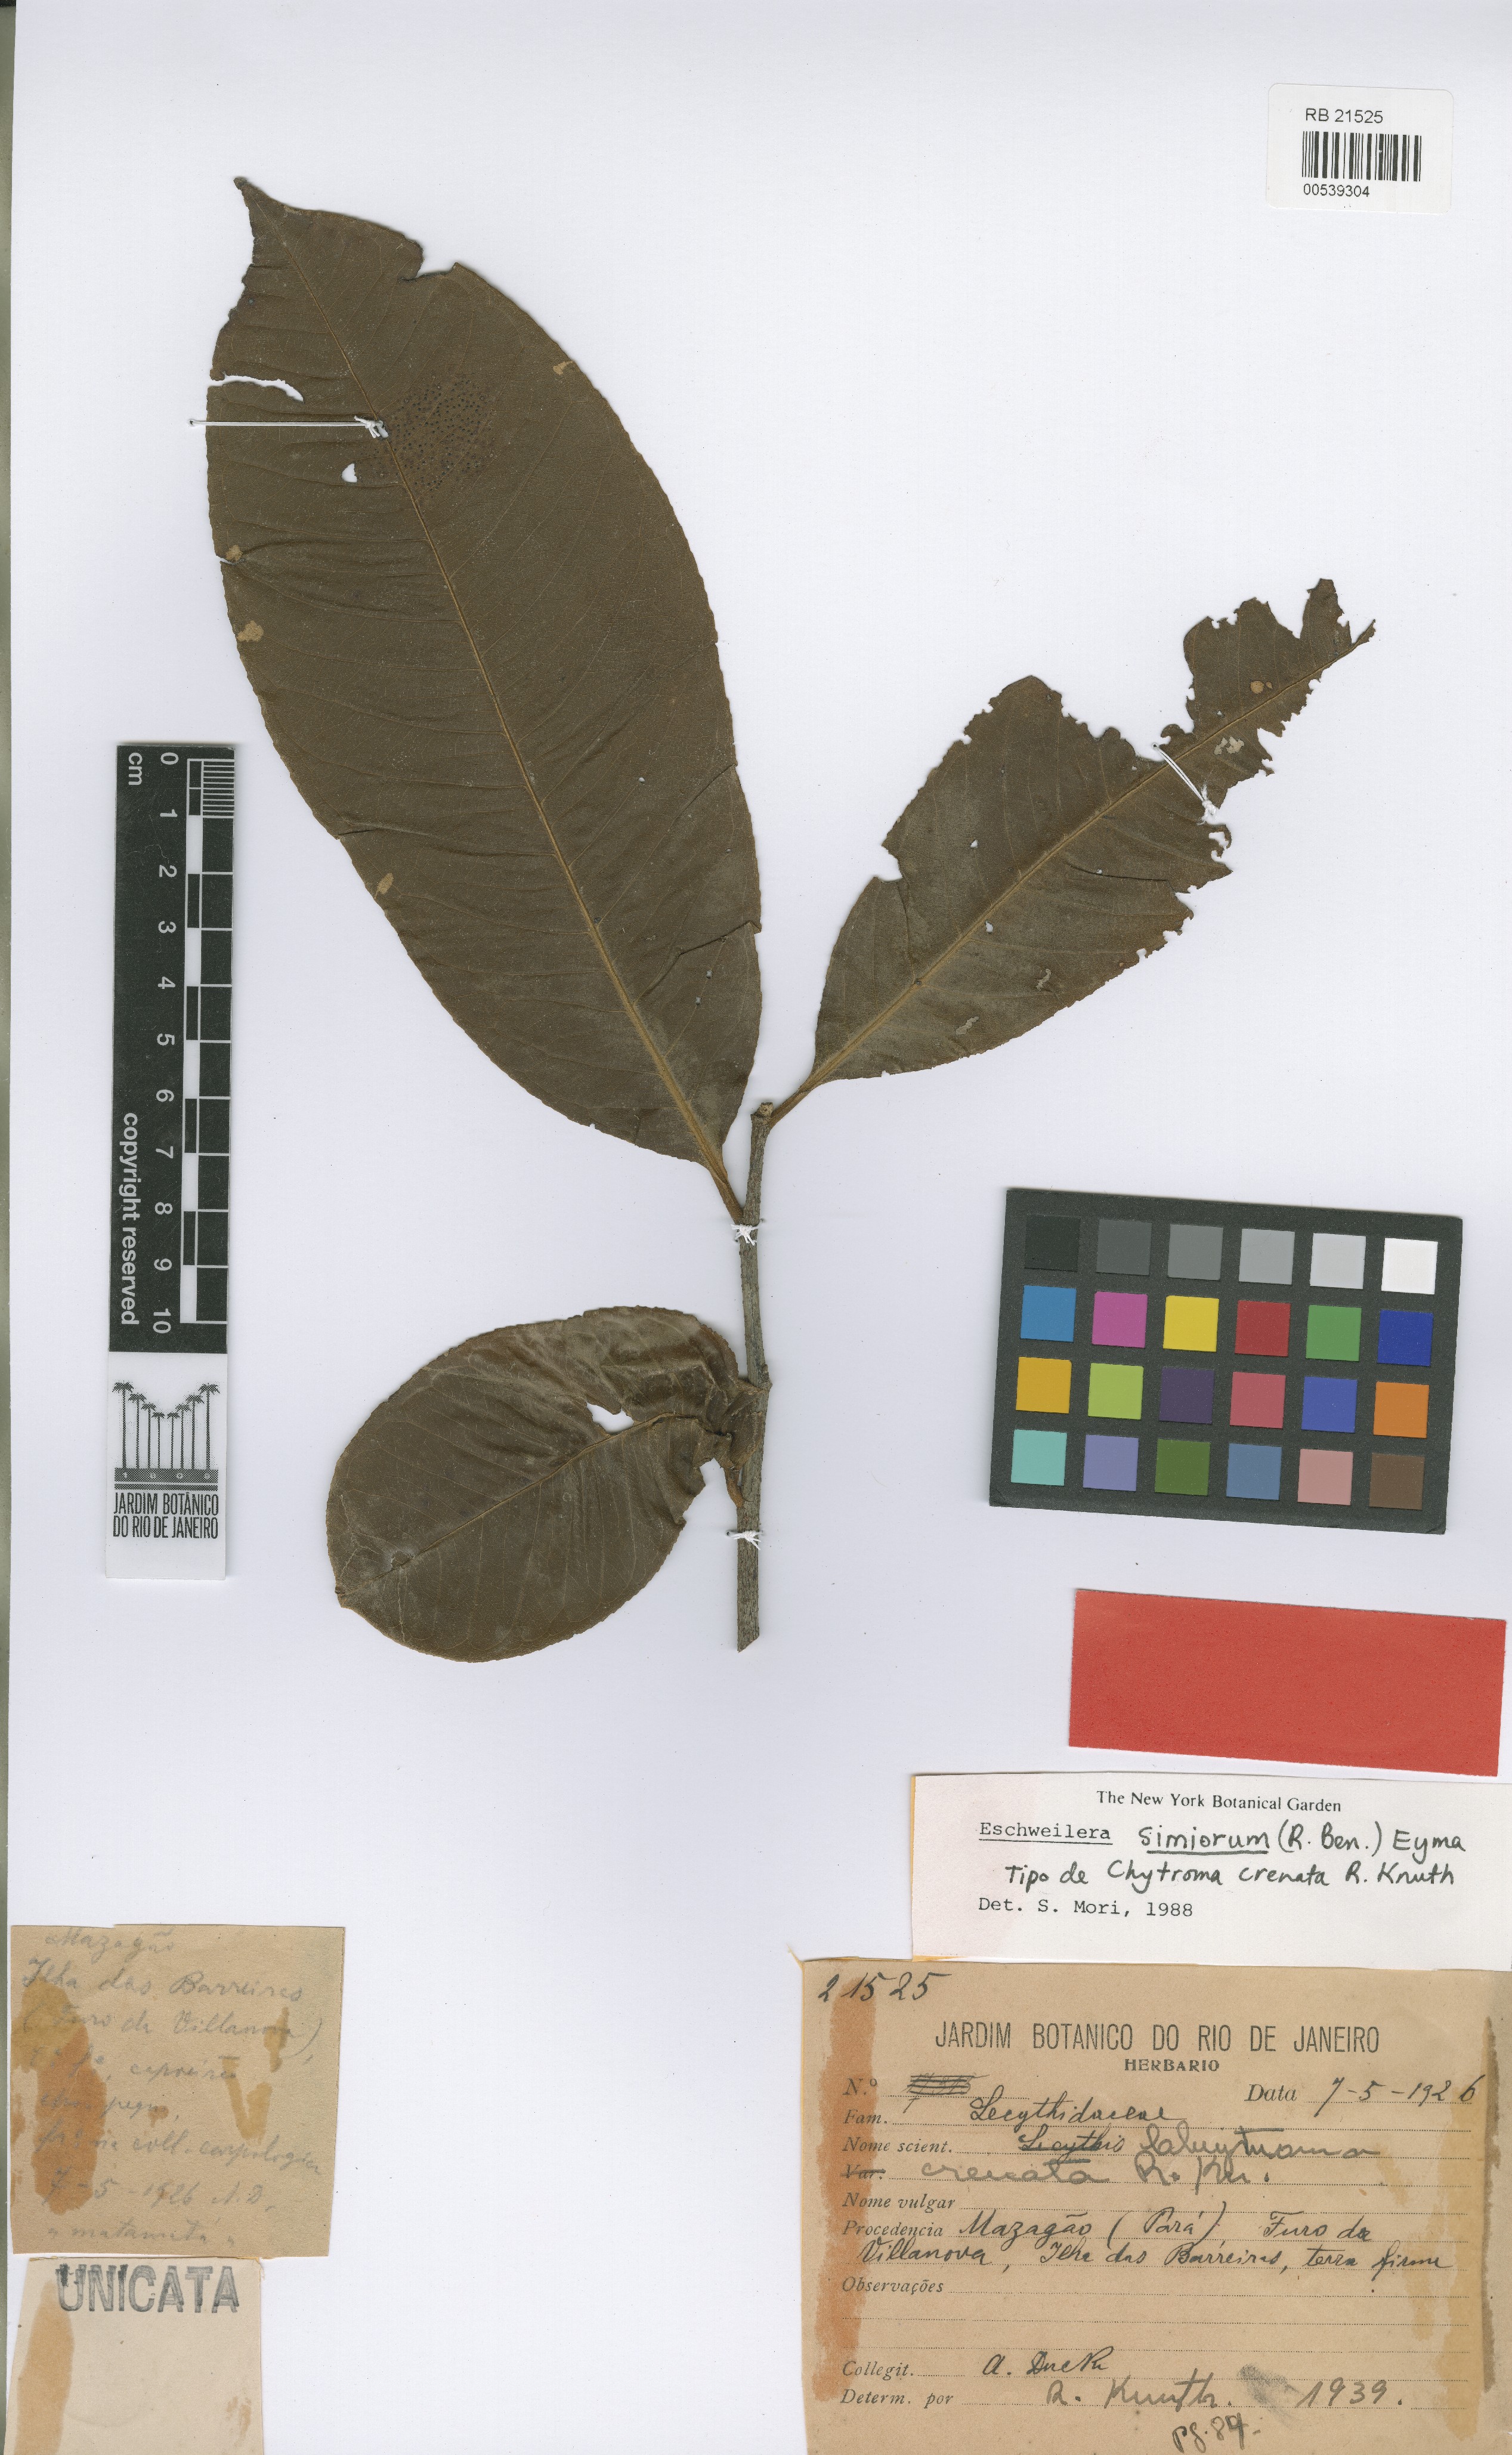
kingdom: Plantae
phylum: Tracheophyta
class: Magnoliopsida
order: Ericales
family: Lecythidaceae
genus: Eschweilera
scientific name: Eschweilera simiorum
